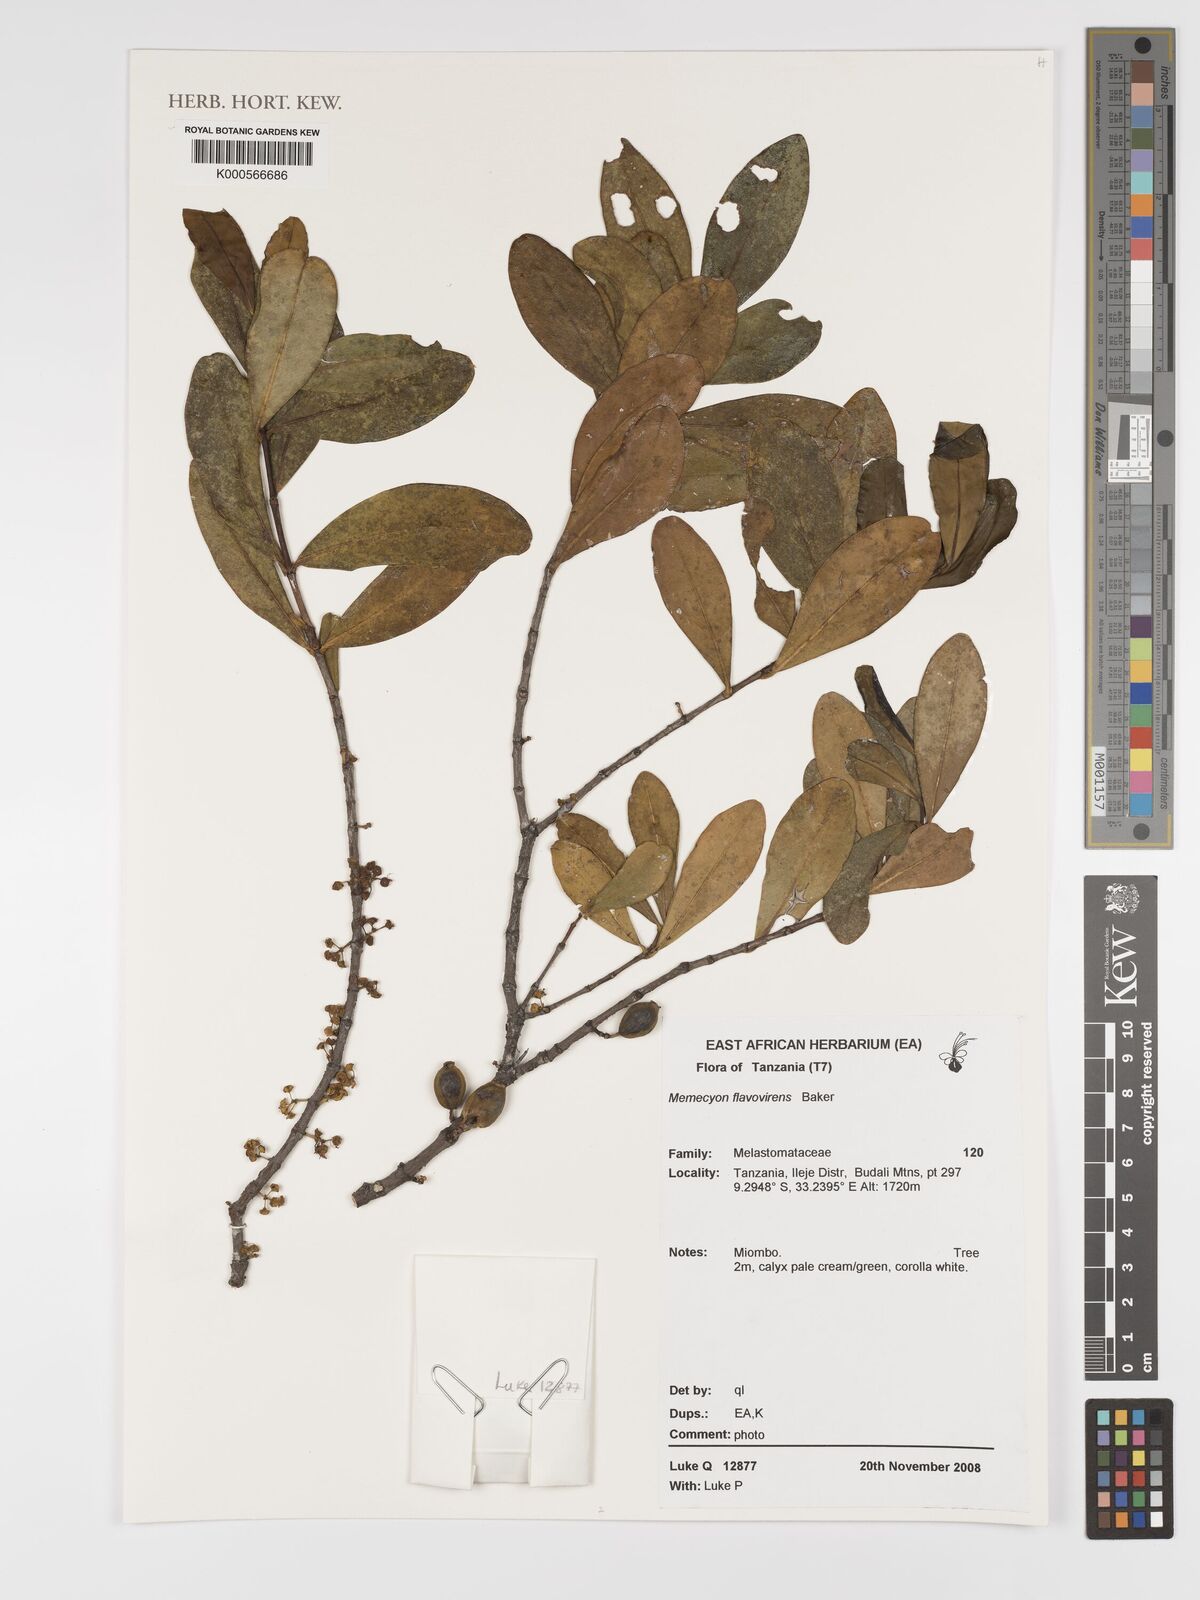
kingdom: Plantae
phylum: Tracheophyta
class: Magnoliopsida
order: Myrtales
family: Melastomataceae
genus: Memecylon
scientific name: Memecylon flavovirens
